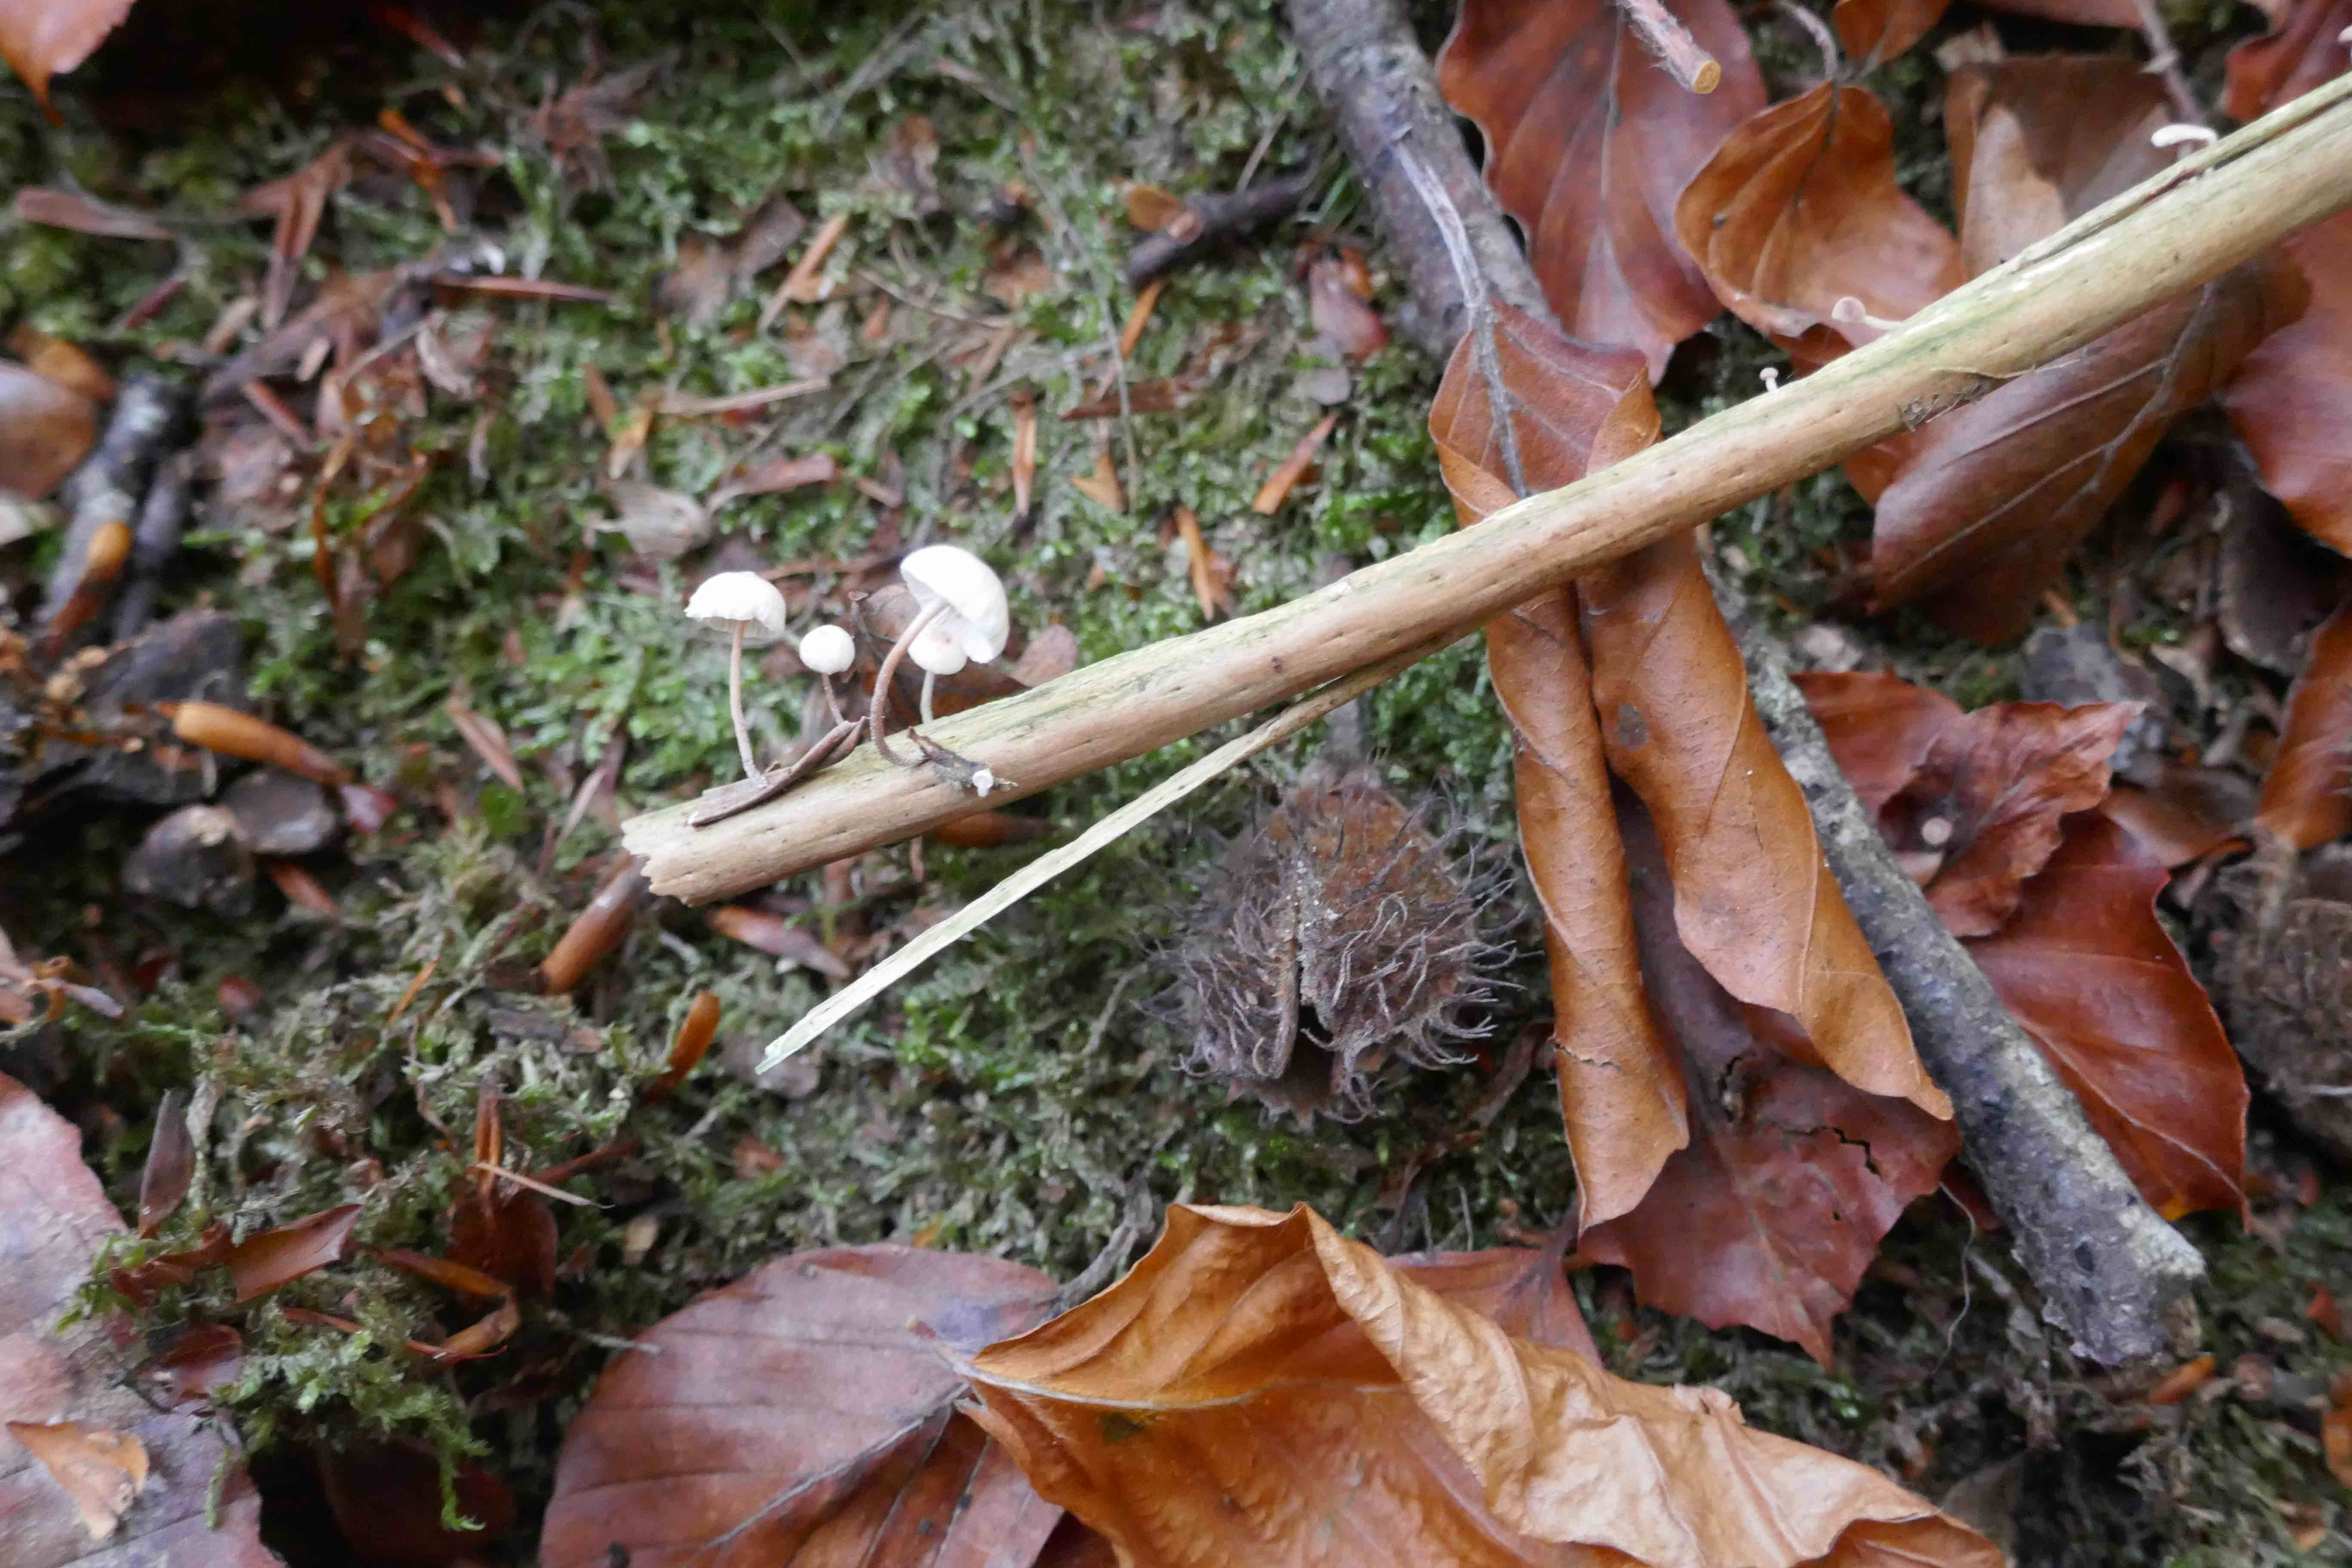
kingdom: Fungi
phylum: Basidiomycota
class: Agaricomycetes
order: Agaricales
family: Omphalotaceae
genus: Collybiopsis
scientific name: Collybiopsis ramealis
